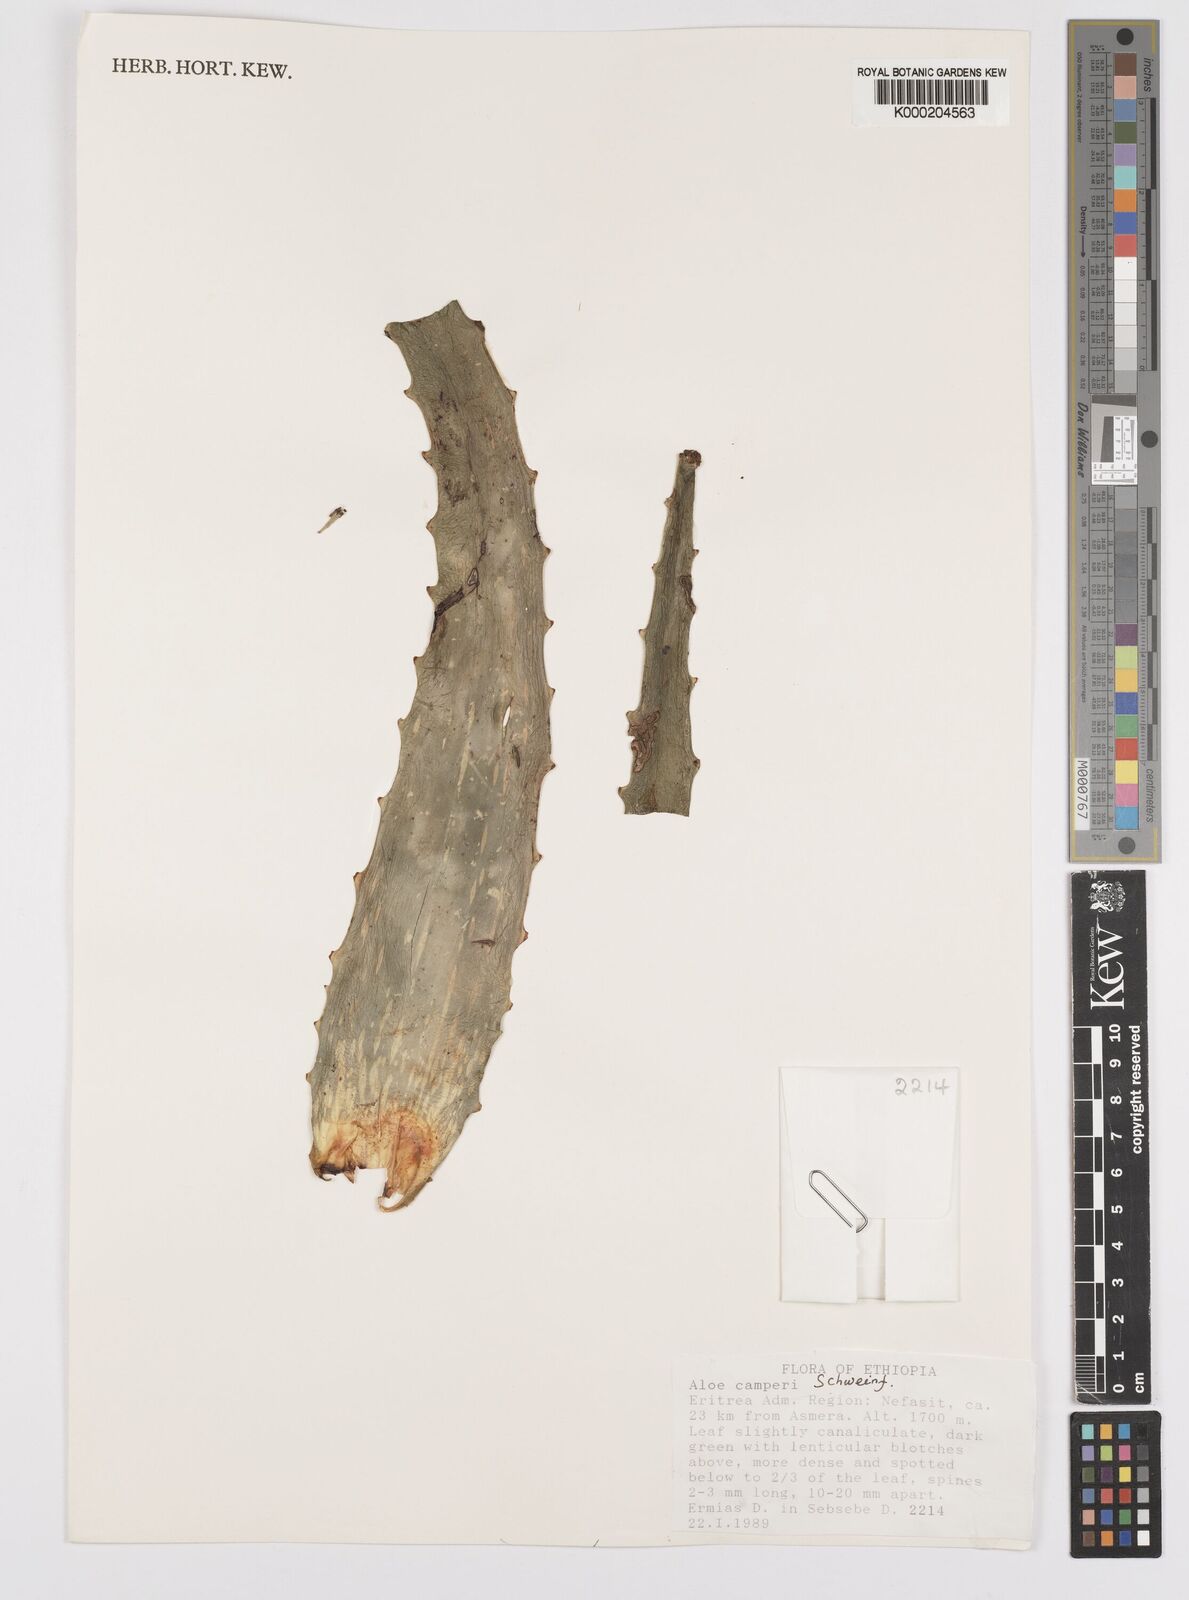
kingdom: Plantae
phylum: Tracheophyta
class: Liliopsida
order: Asparagales
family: Asphodelaceae
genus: Aloe
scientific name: Aloe camperi
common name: Camper's aloe
